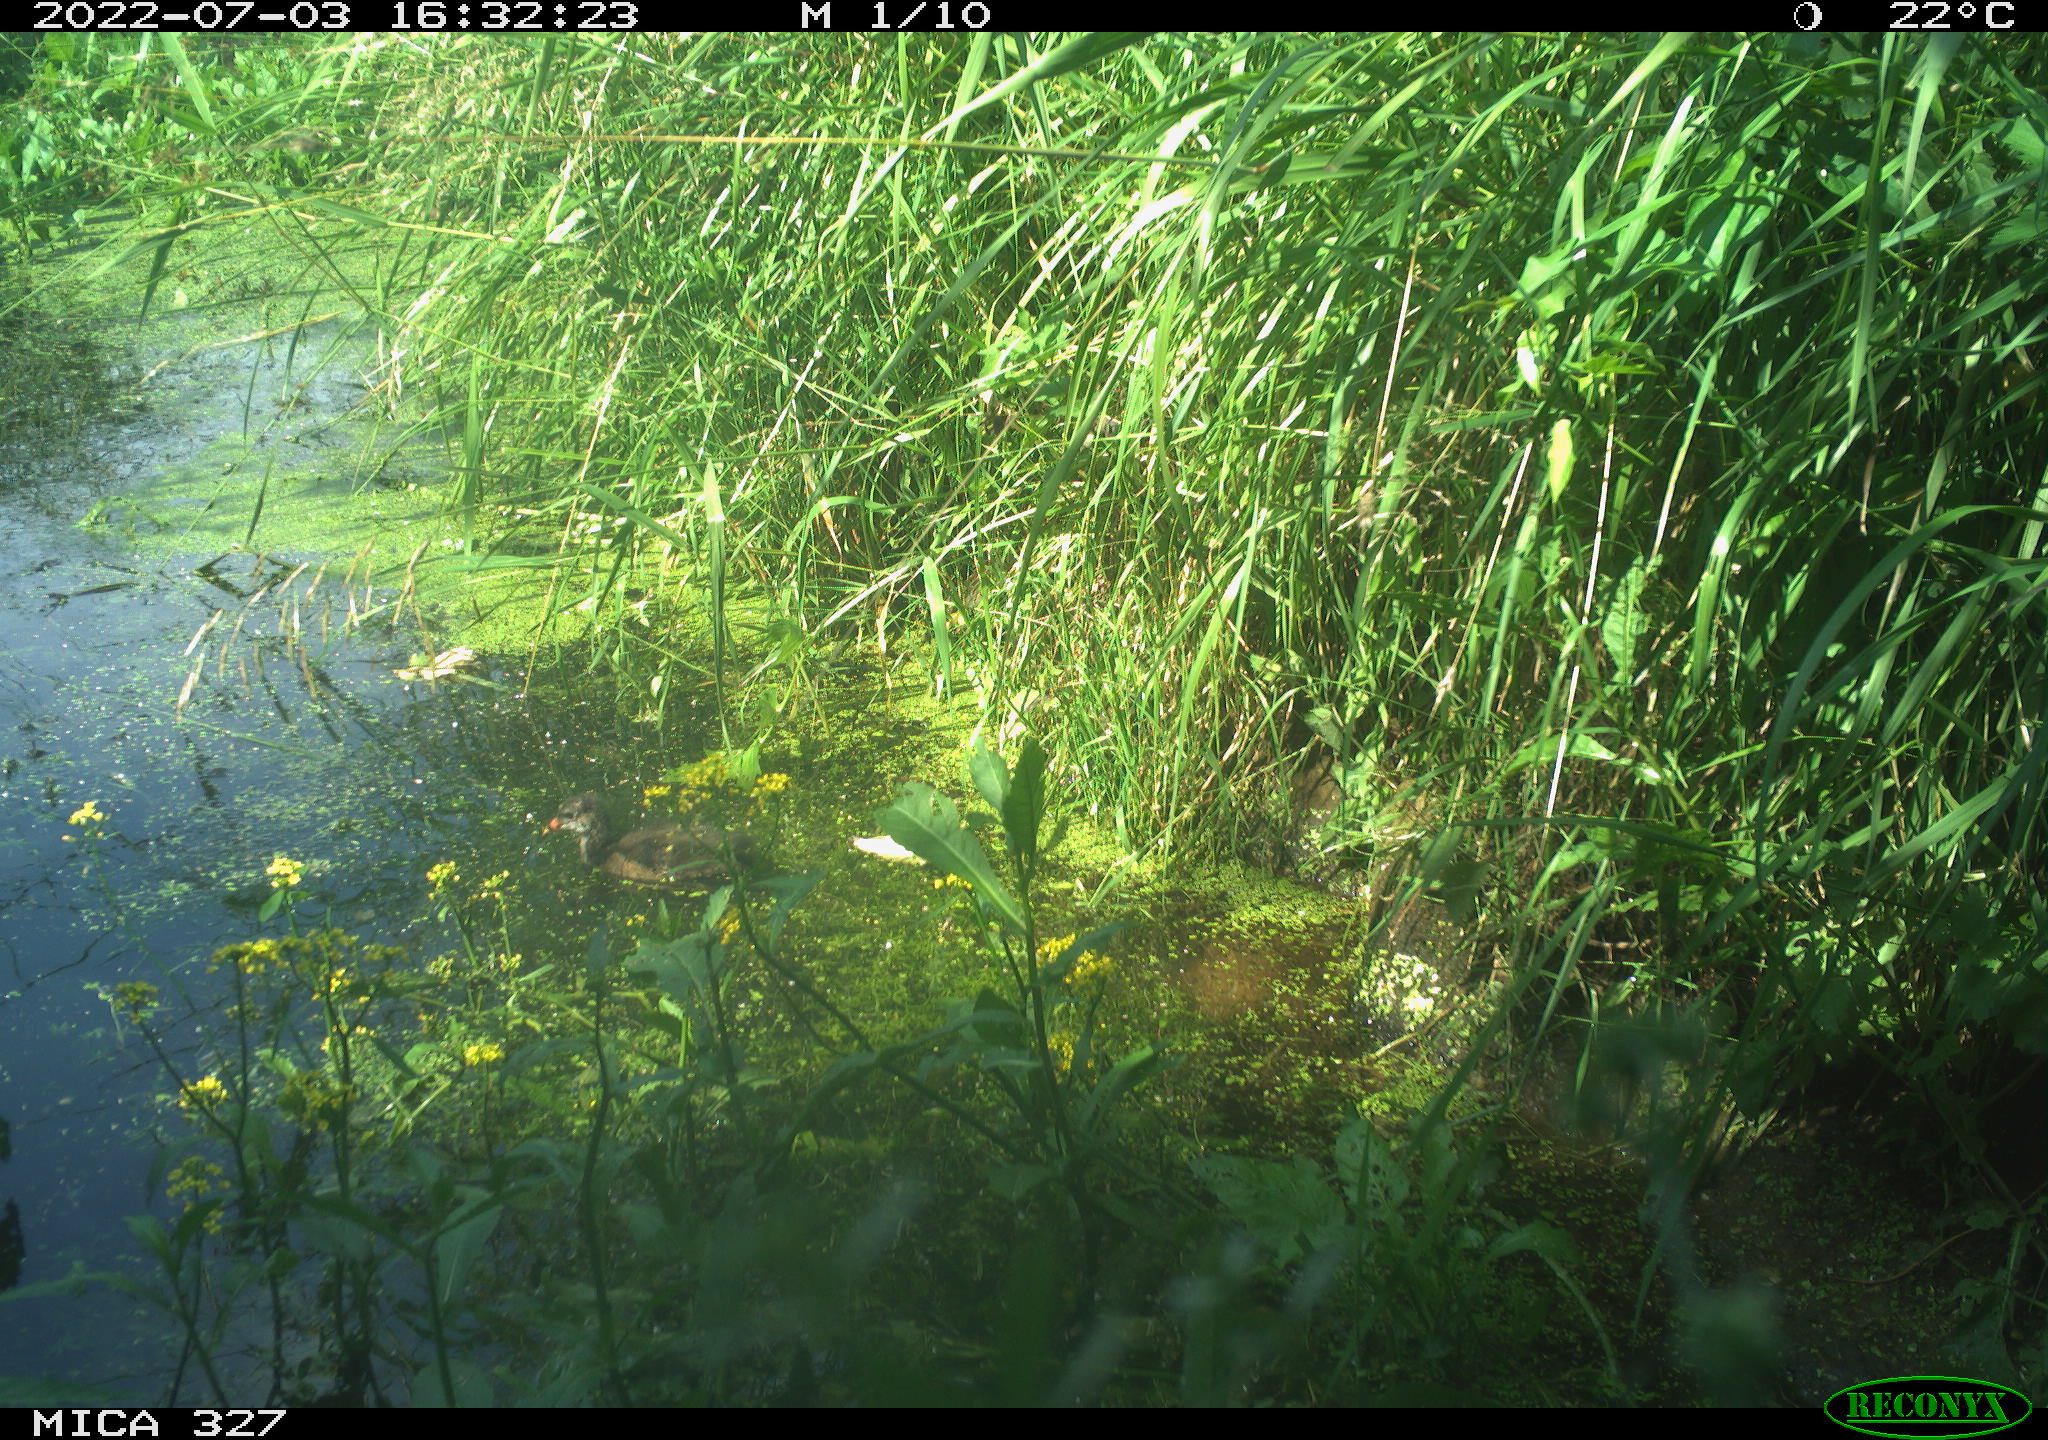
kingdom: Animalia
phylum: Chordata
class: Aves
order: Gruiformes
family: Rallidae
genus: Gallinula
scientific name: Gallinula chloropus
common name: Common moorhen
